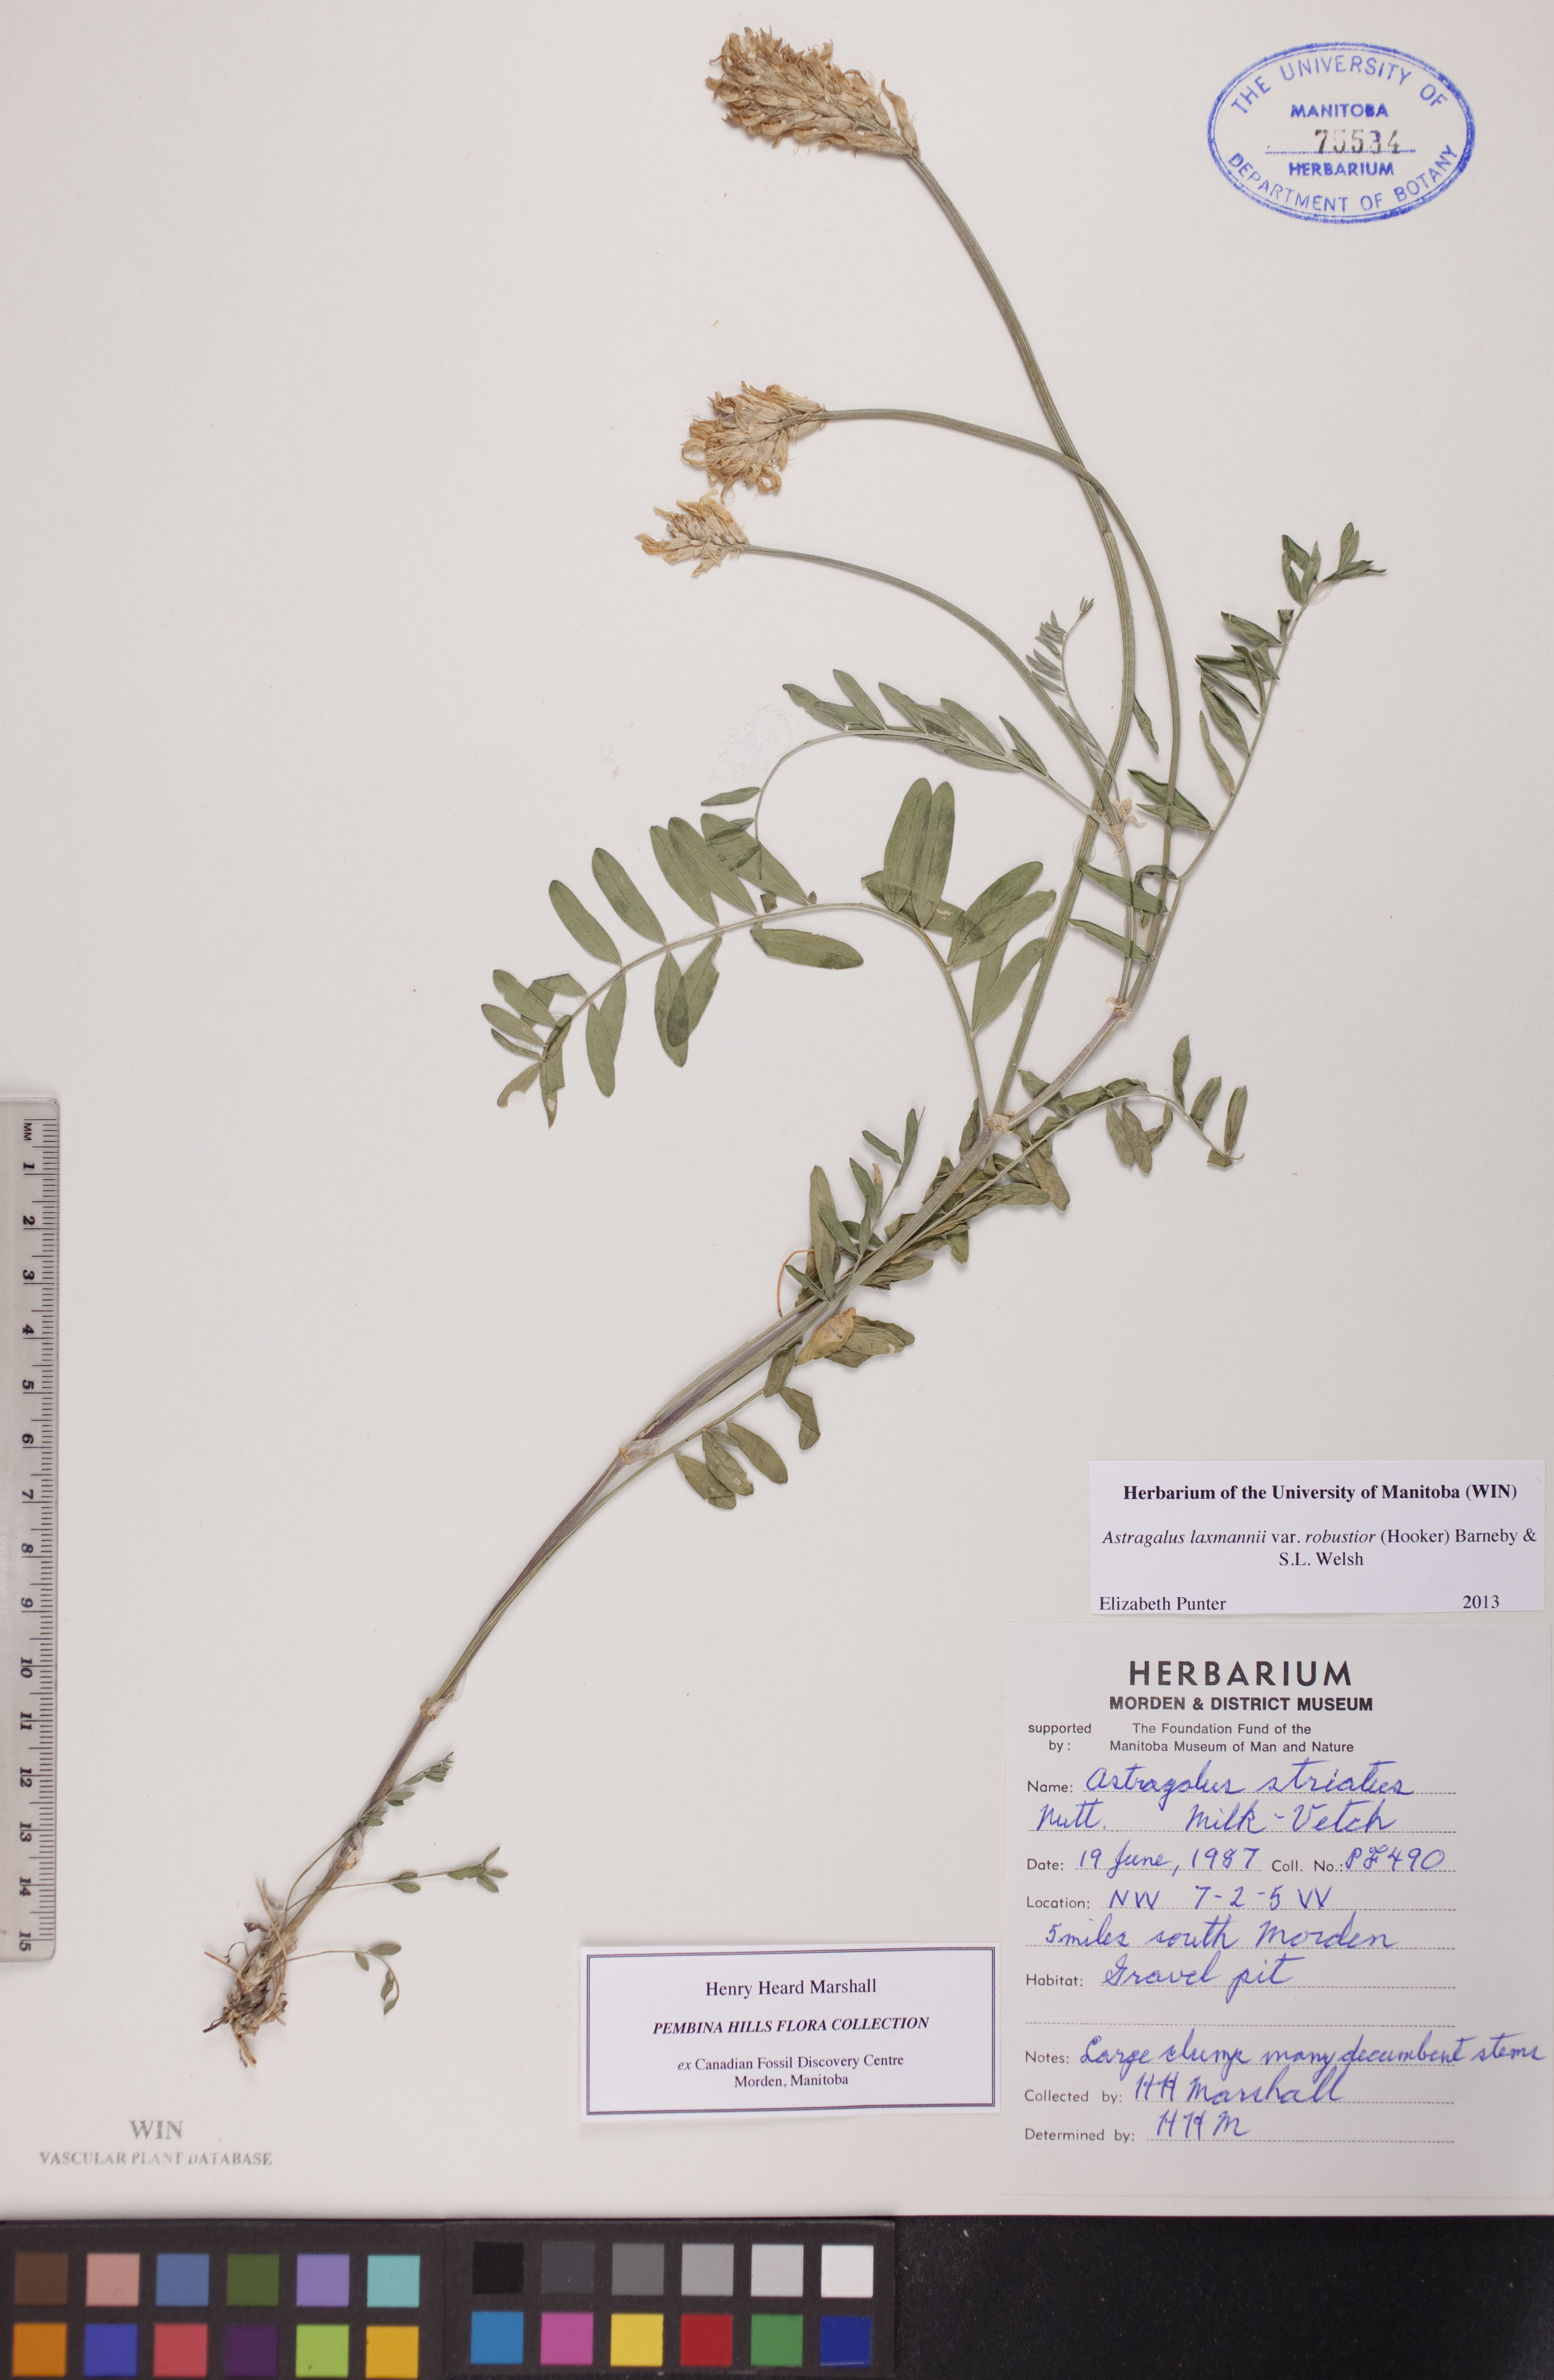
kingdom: Plantae
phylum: Tracheophyta
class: Magnoliopsida
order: Fabales
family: Fabaceae
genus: Astragalus
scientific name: Astragalus laxmannii
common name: Laxmann's milk-vetch
